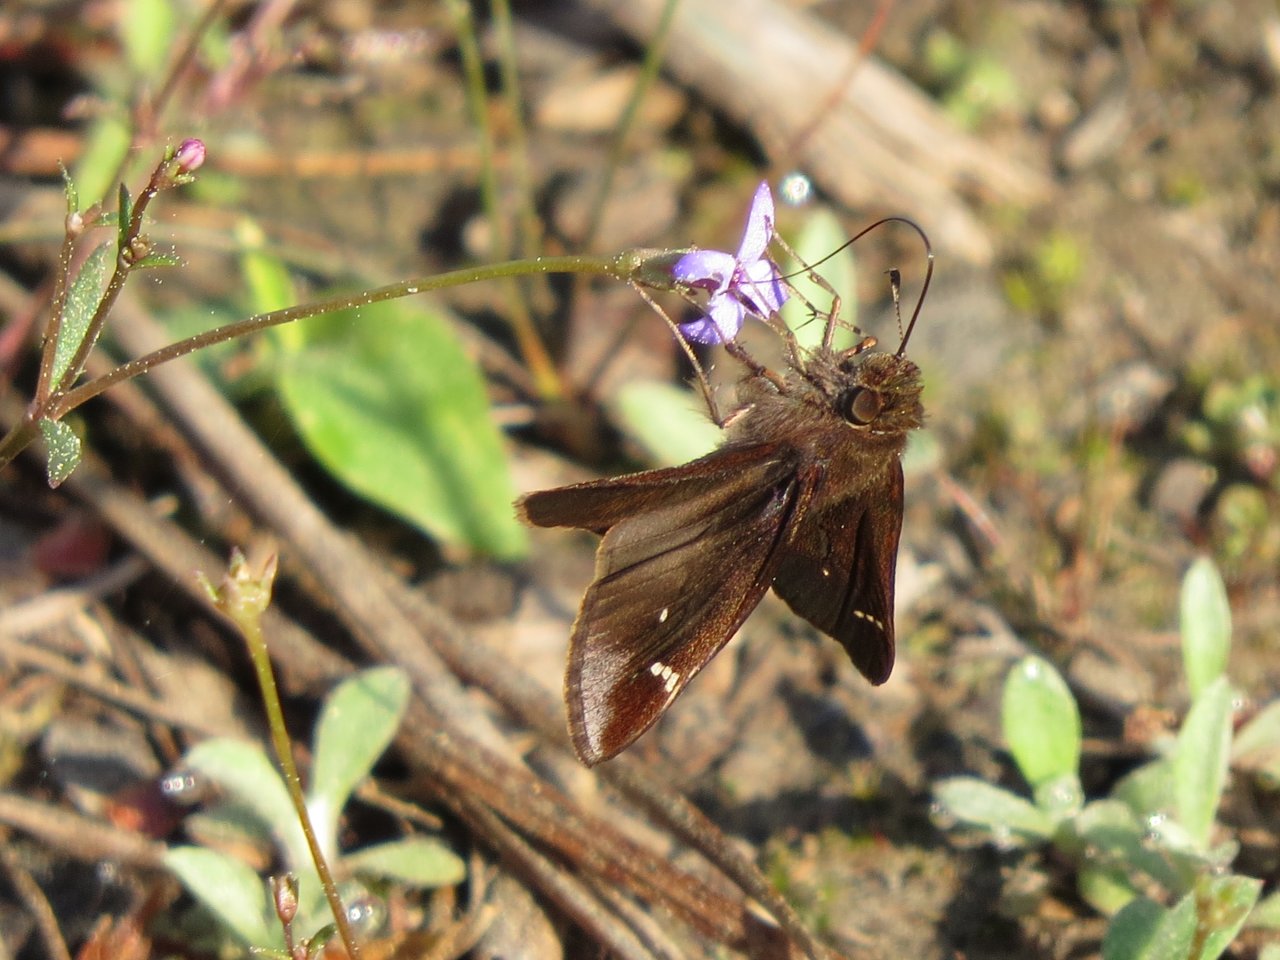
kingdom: Animalia
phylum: Arthropoda
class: Insecta
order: Lepidoptera
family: Hesperiidae
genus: Lerema
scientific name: Lerema accius
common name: Clouded Skipper
